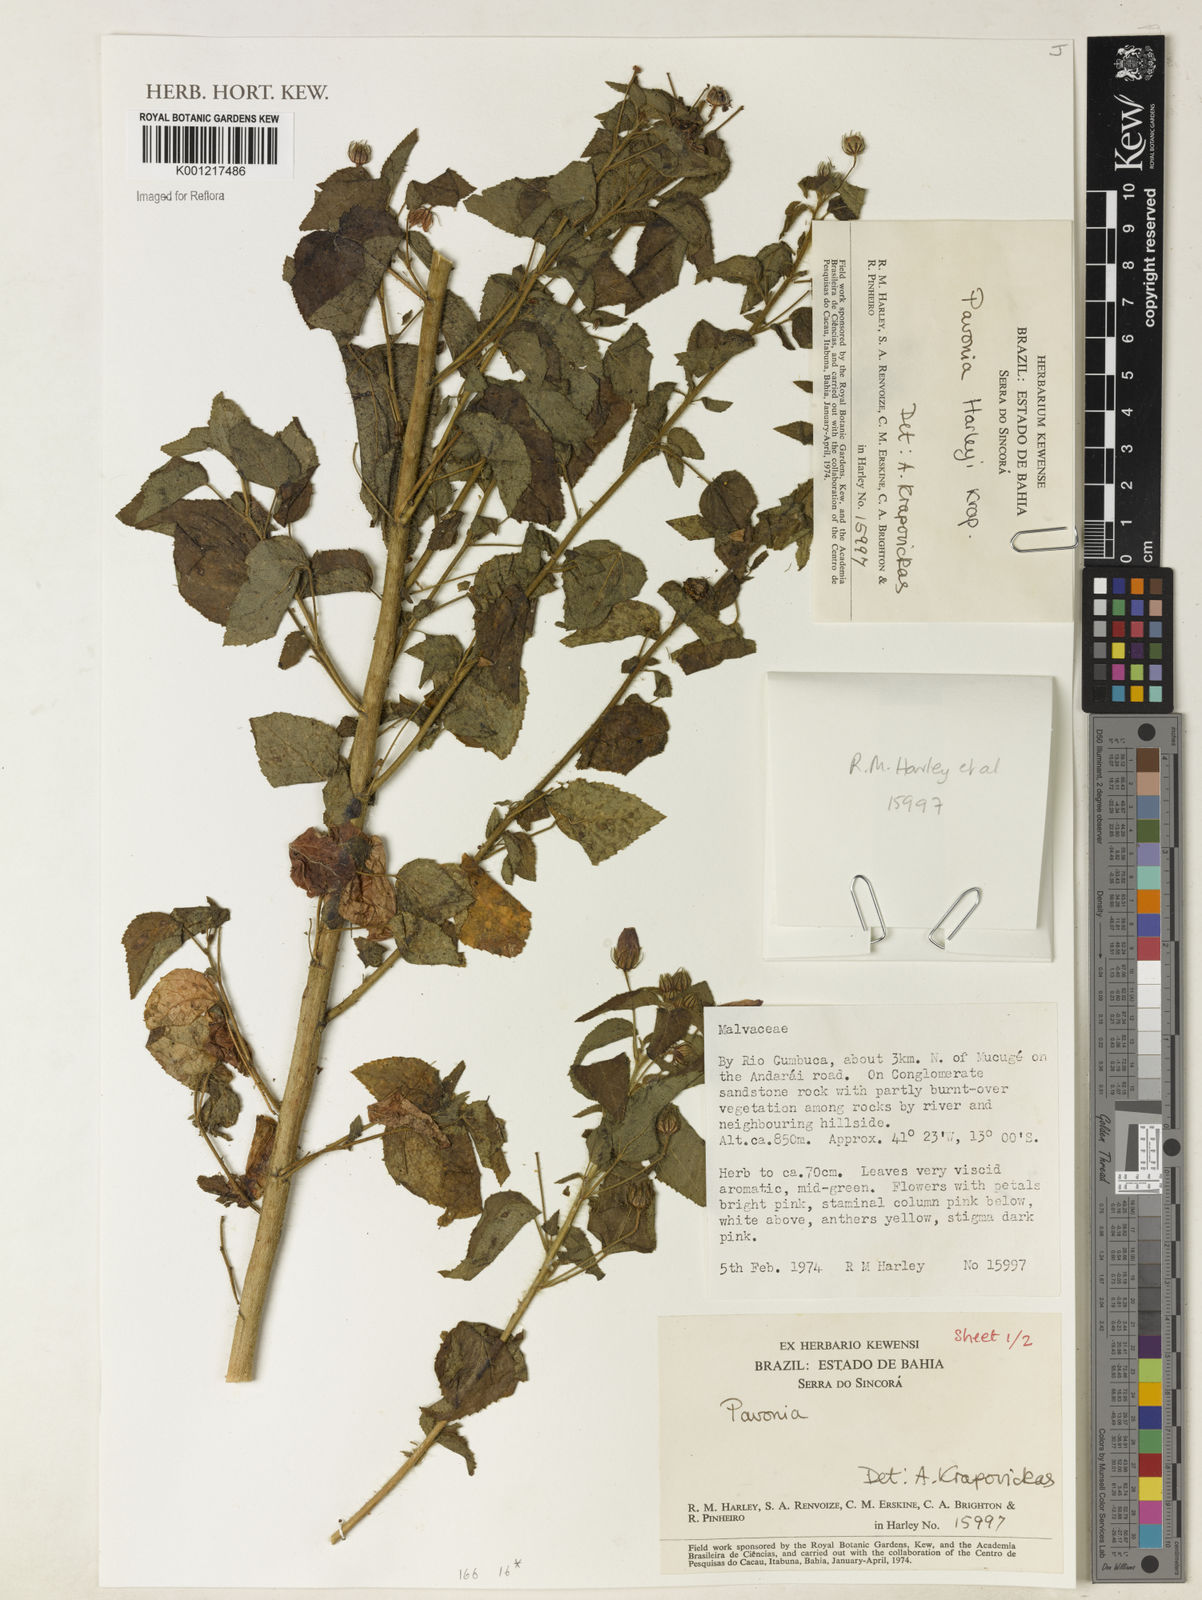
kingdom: Plantae
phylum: Tracheophyta
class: Magnoliopsida
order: Malvales
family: Malvaceae
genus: Pavonia
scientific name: Pavonia harleyi
